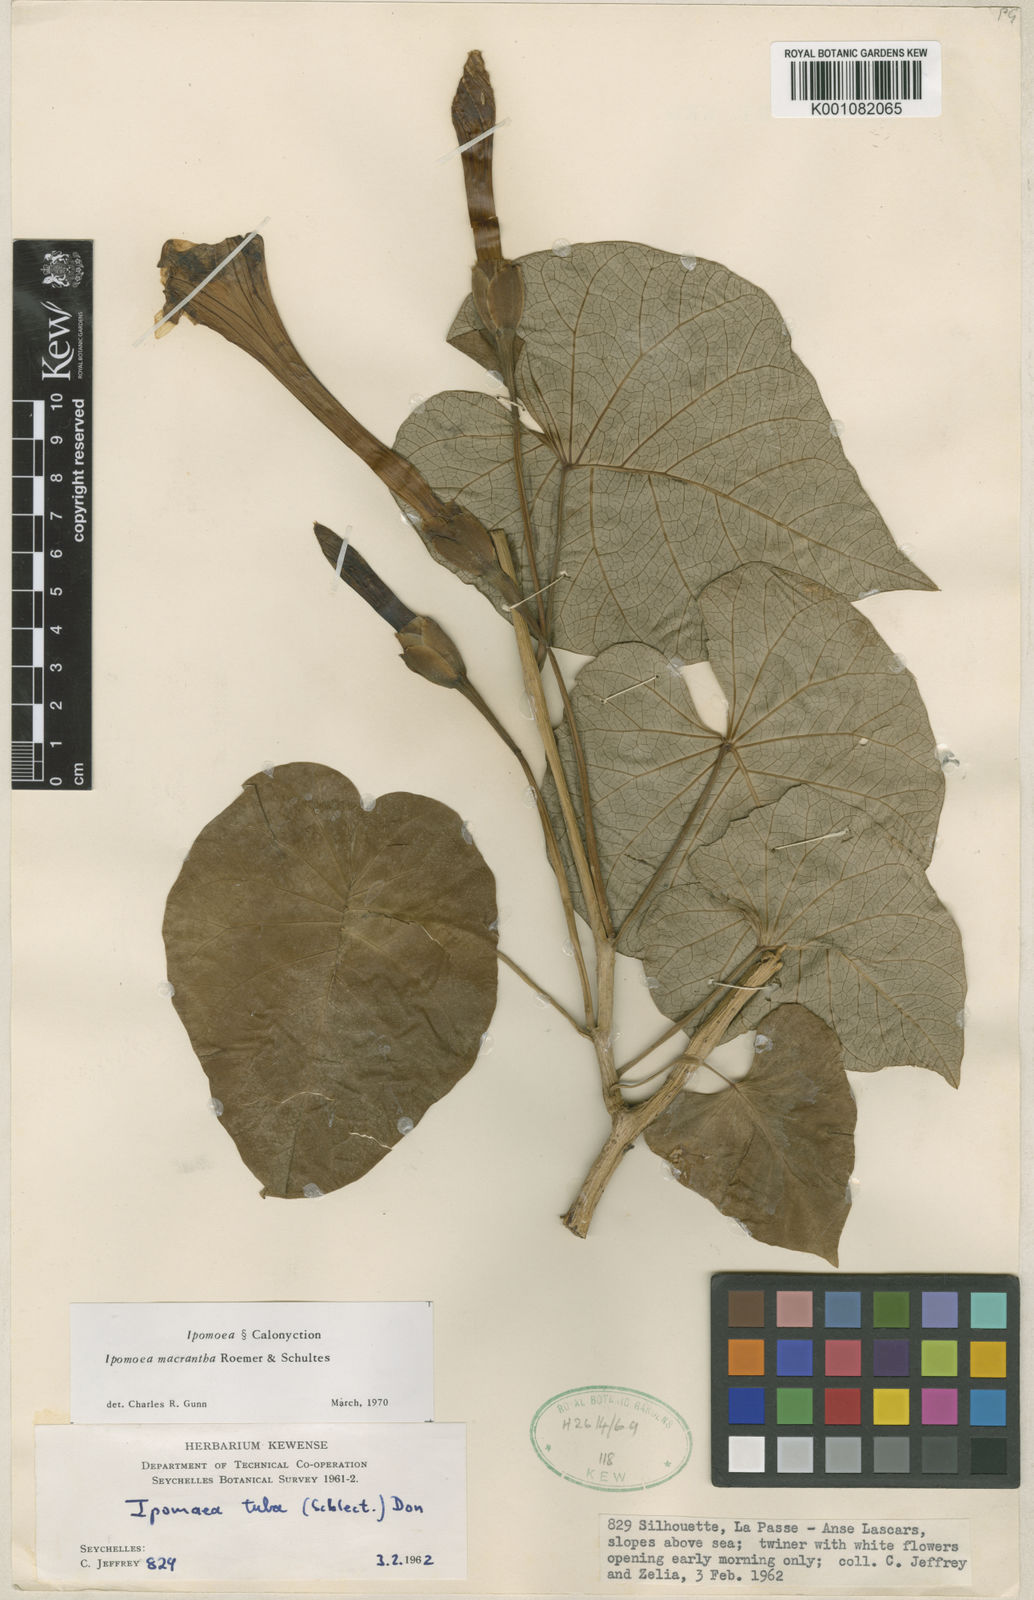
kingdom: Plantae
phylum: Tracheophyta
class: Magnoliopsida
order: Solanales
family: Convolvulaceae
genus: Ipomoea
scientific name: Ipomoea violacea
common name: Beach moonflower
